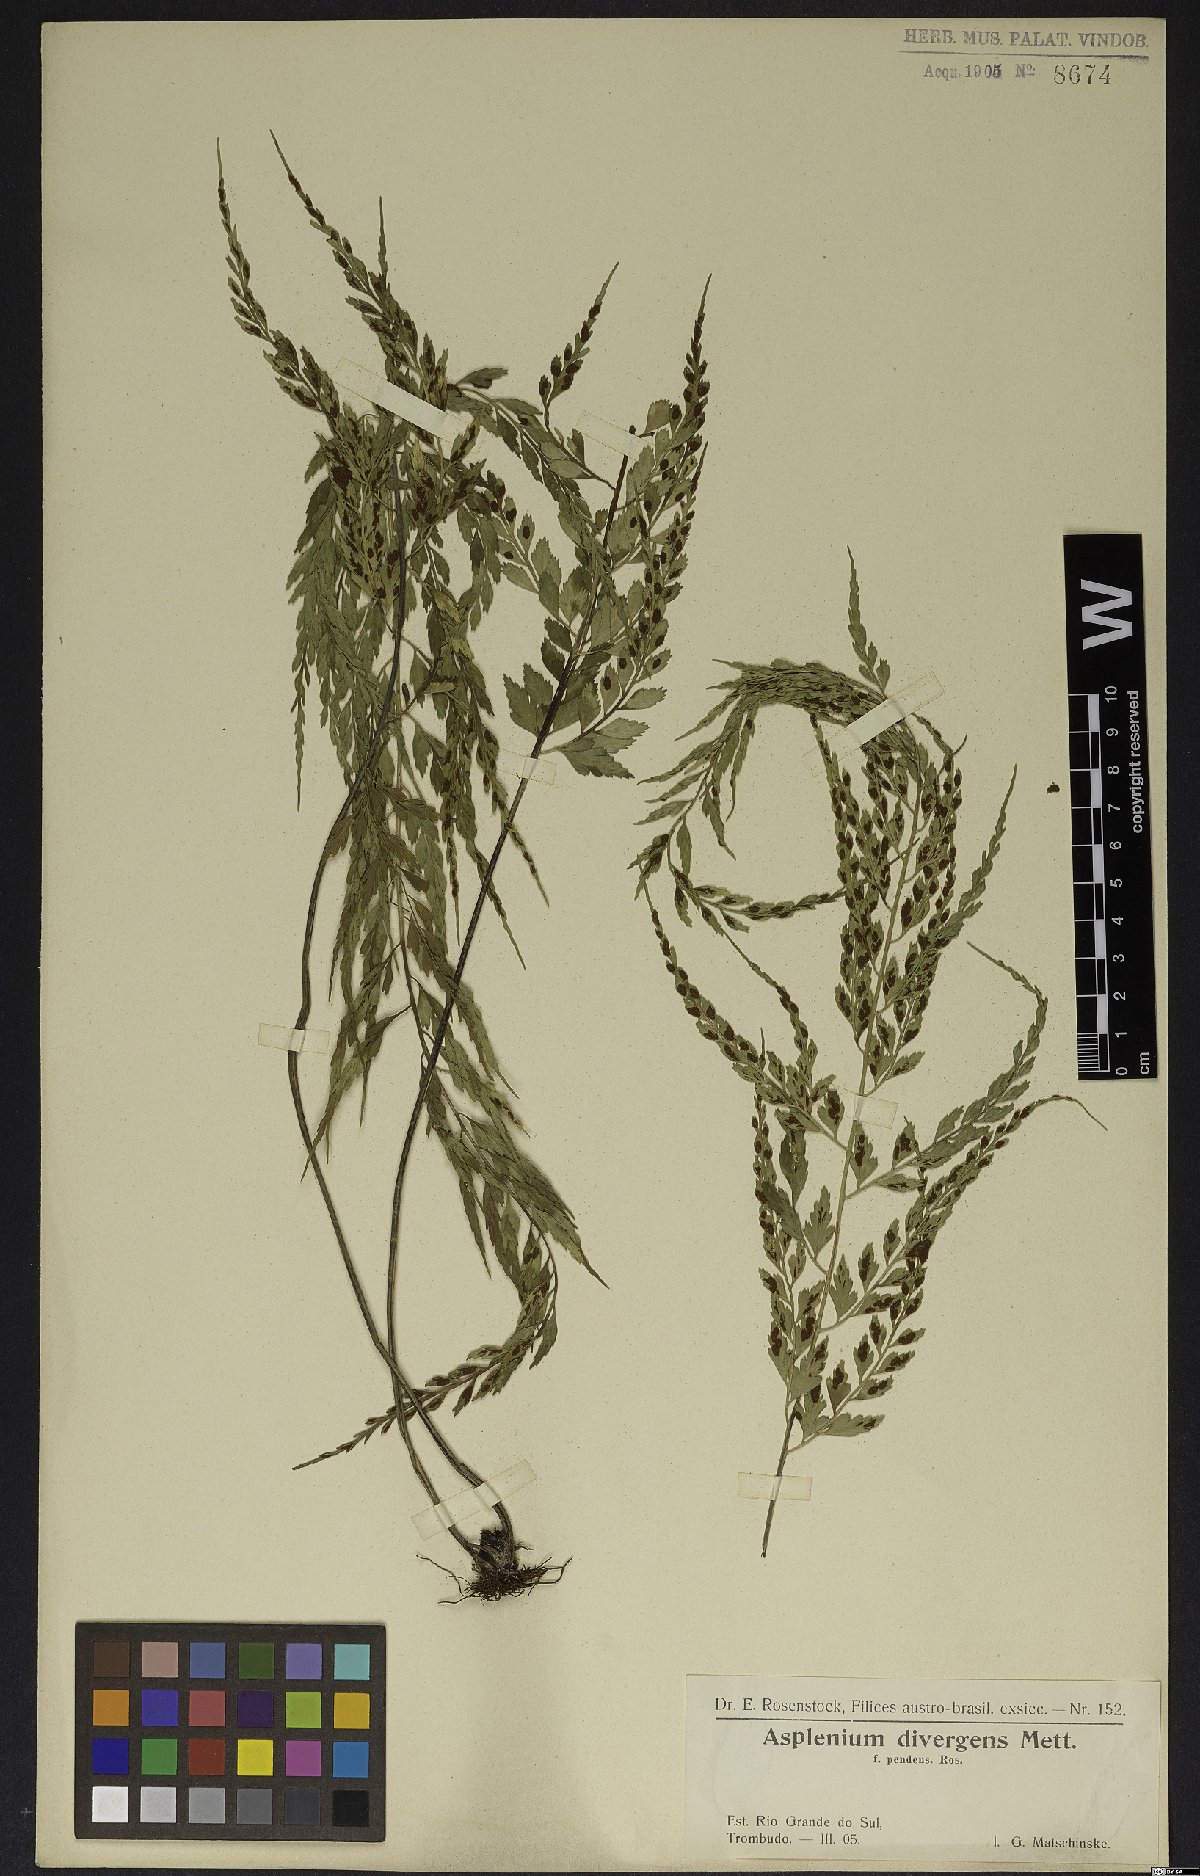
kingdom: Plantae
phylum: Tracheophyta
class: Polypodiopsida
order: Polypodiales
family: Aspleniaceae
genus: Asplenium
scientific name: Asplenium gastonis
